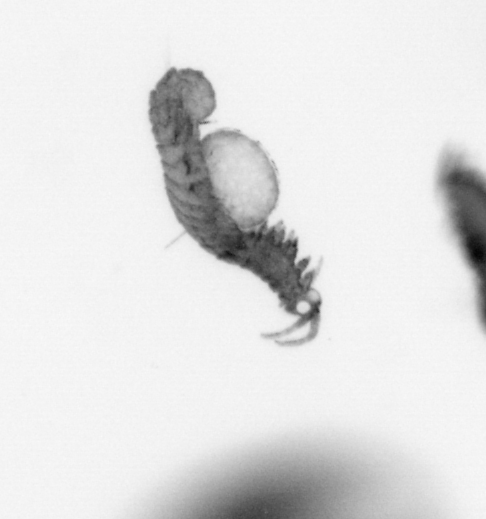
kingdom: Animalia
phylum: Annelida
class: Polychaeta
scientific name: Polychaeta
